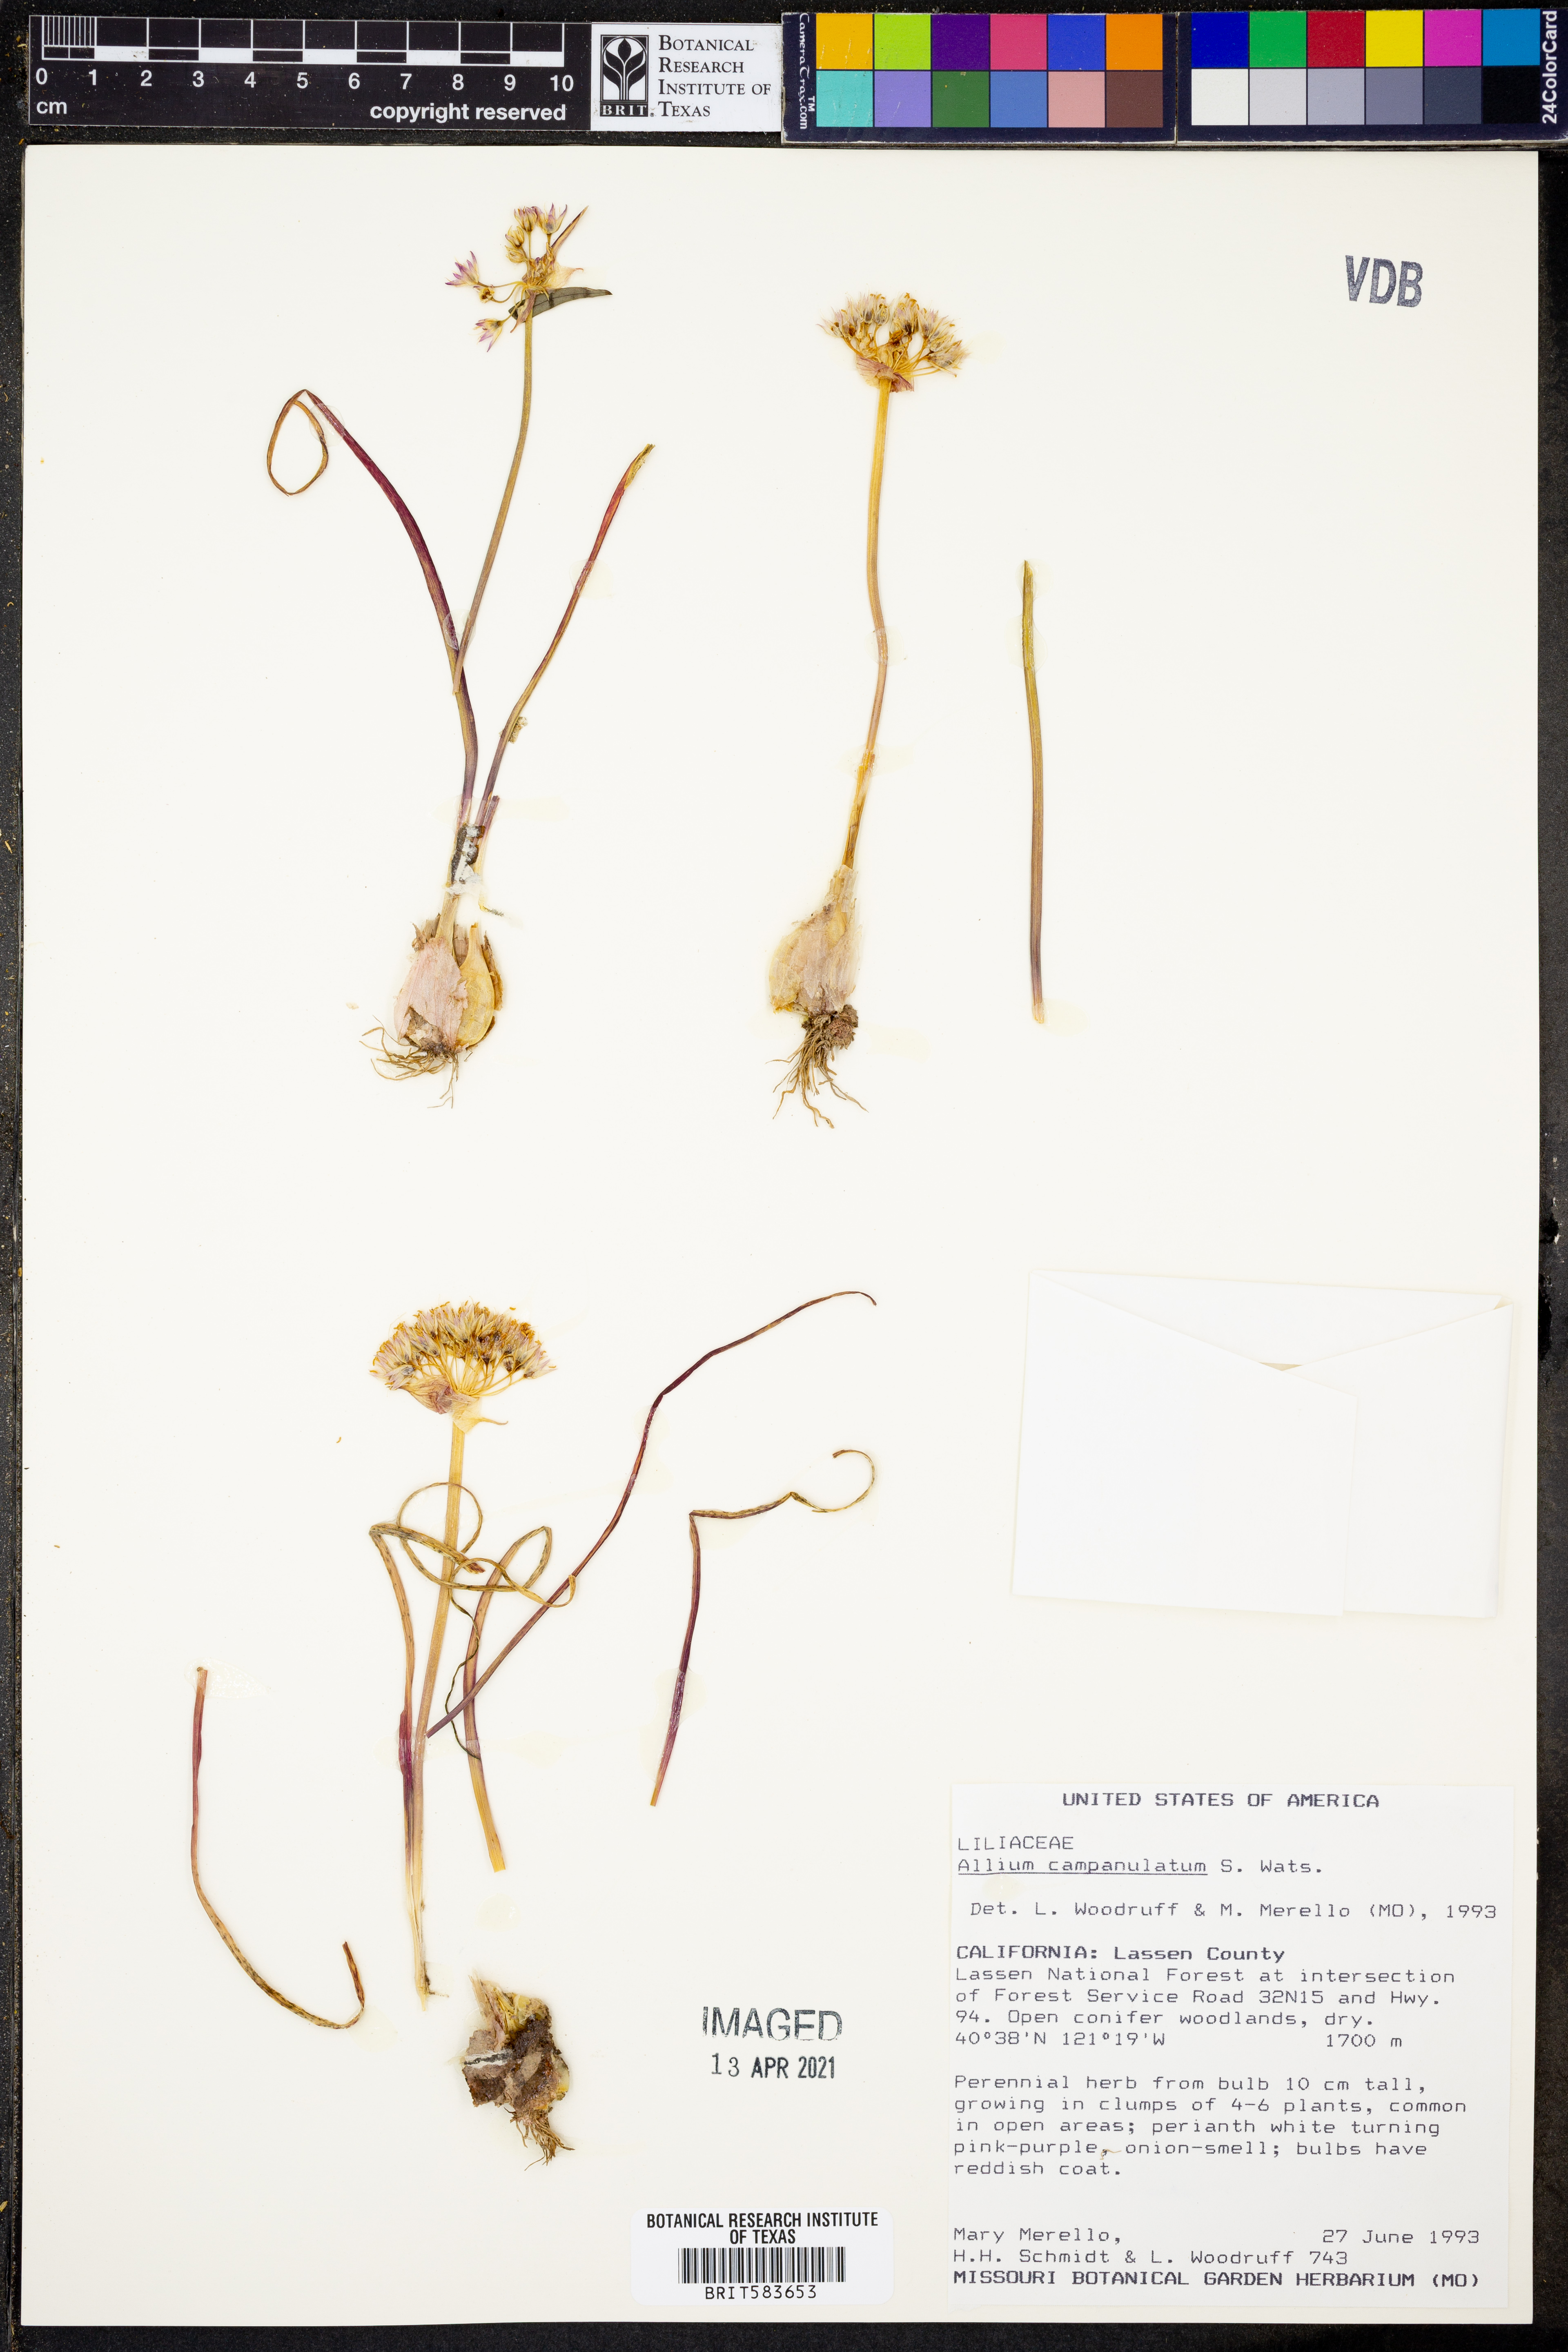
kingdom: Plantae
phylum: Tracheophyta
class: Liliopsida
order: Asparagales
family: Amaryllidaceae
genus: Allium
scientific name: Allium campanulatum
